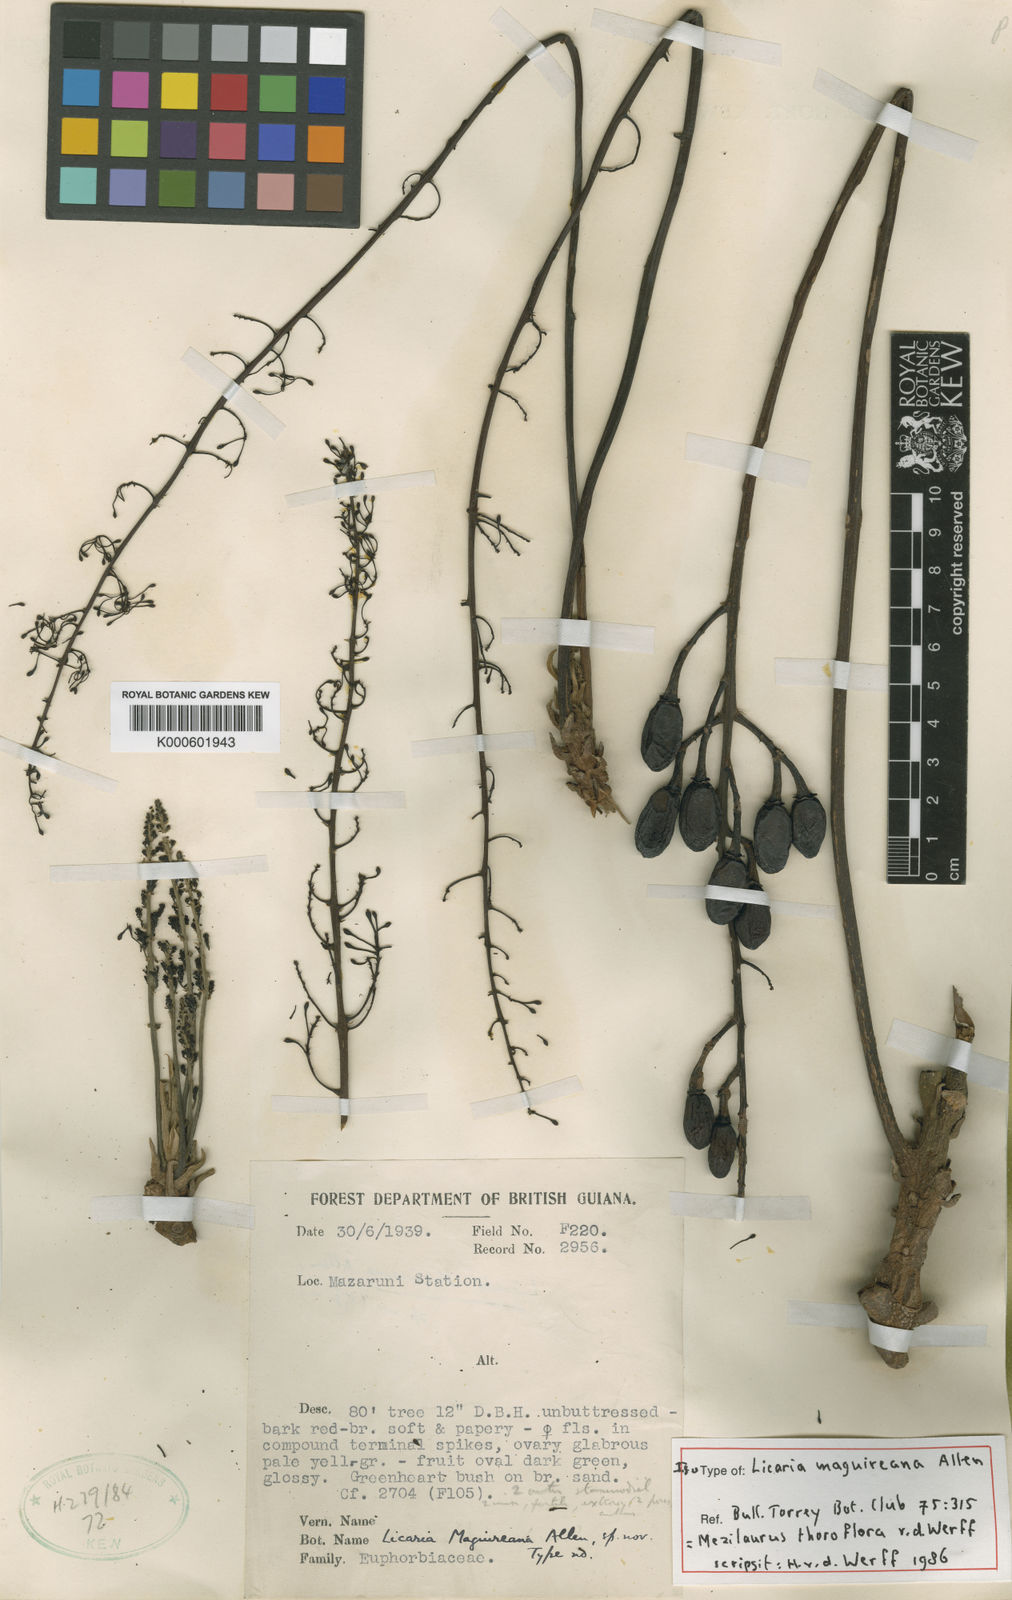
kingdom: Plantae
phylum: Tracheophyta
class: Magnoliopsida
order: Laurales
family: Lauraceae
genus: Mezilaurus
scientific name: Mezilaurus thoroflora
